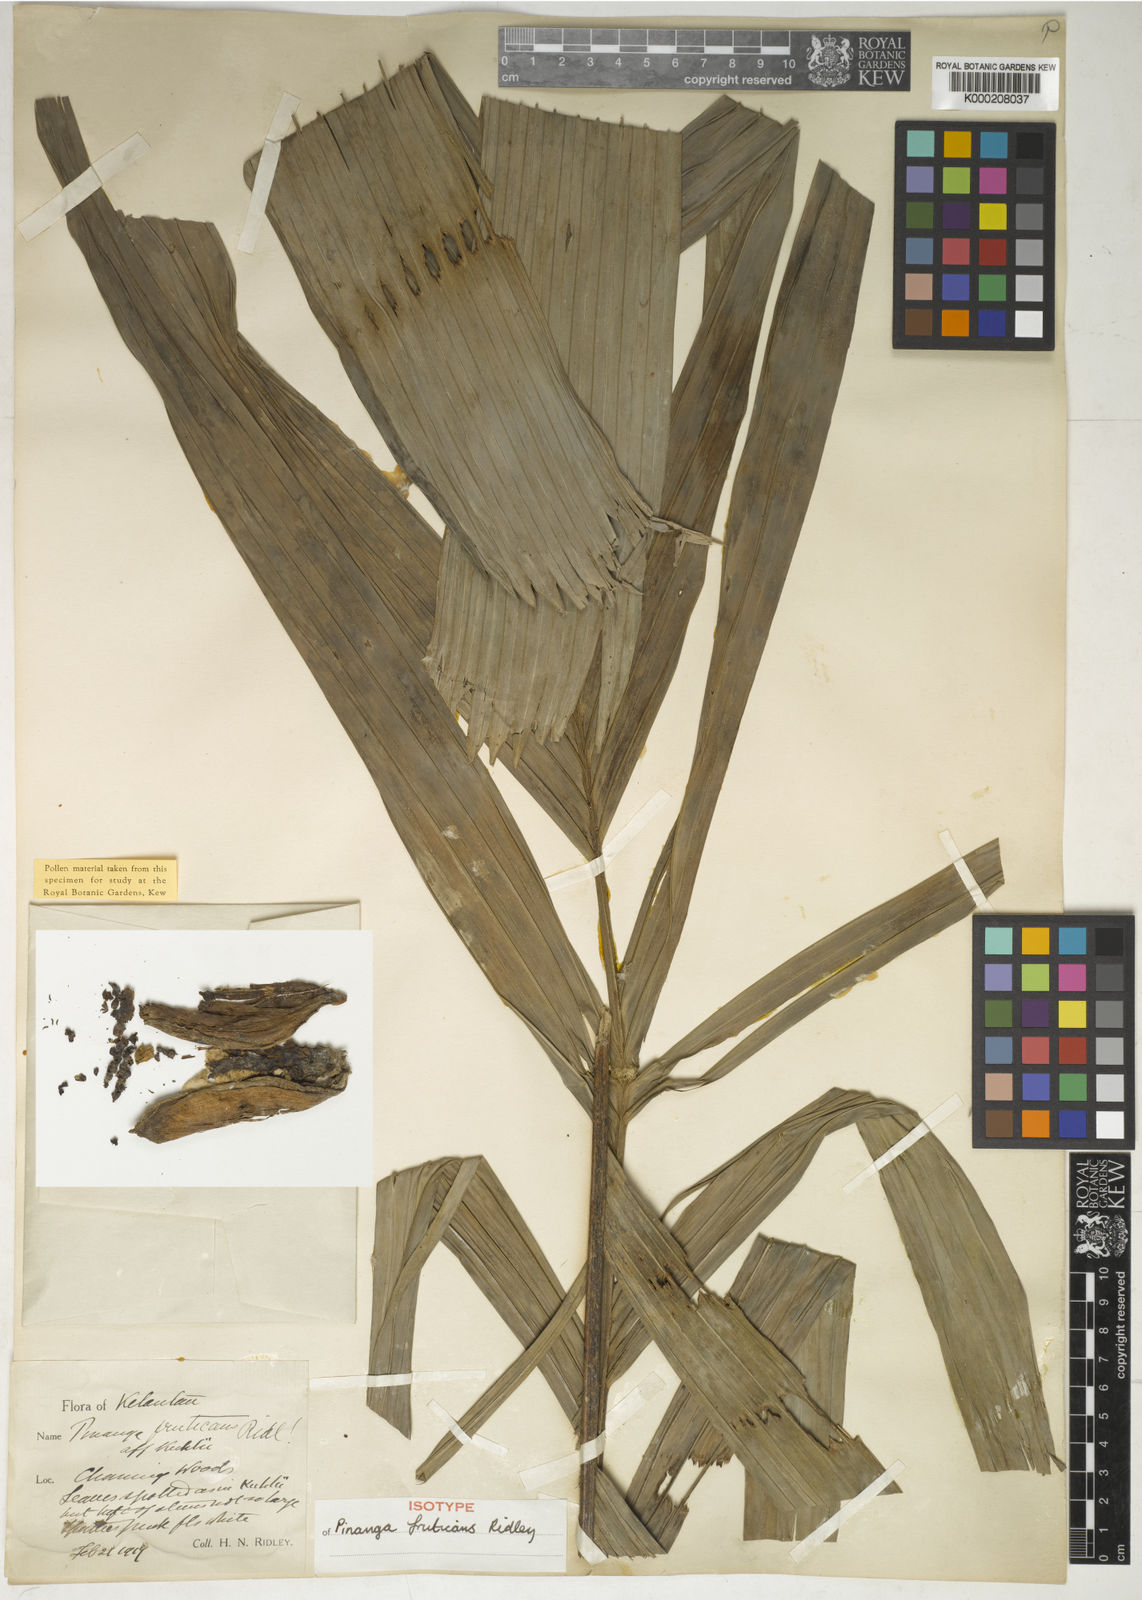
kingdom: Plantae
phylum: Tracheophyta
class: Liliopsida
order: Arecales
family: Arecaceae
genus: Pinanga
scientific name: Pinanga glaucescens
